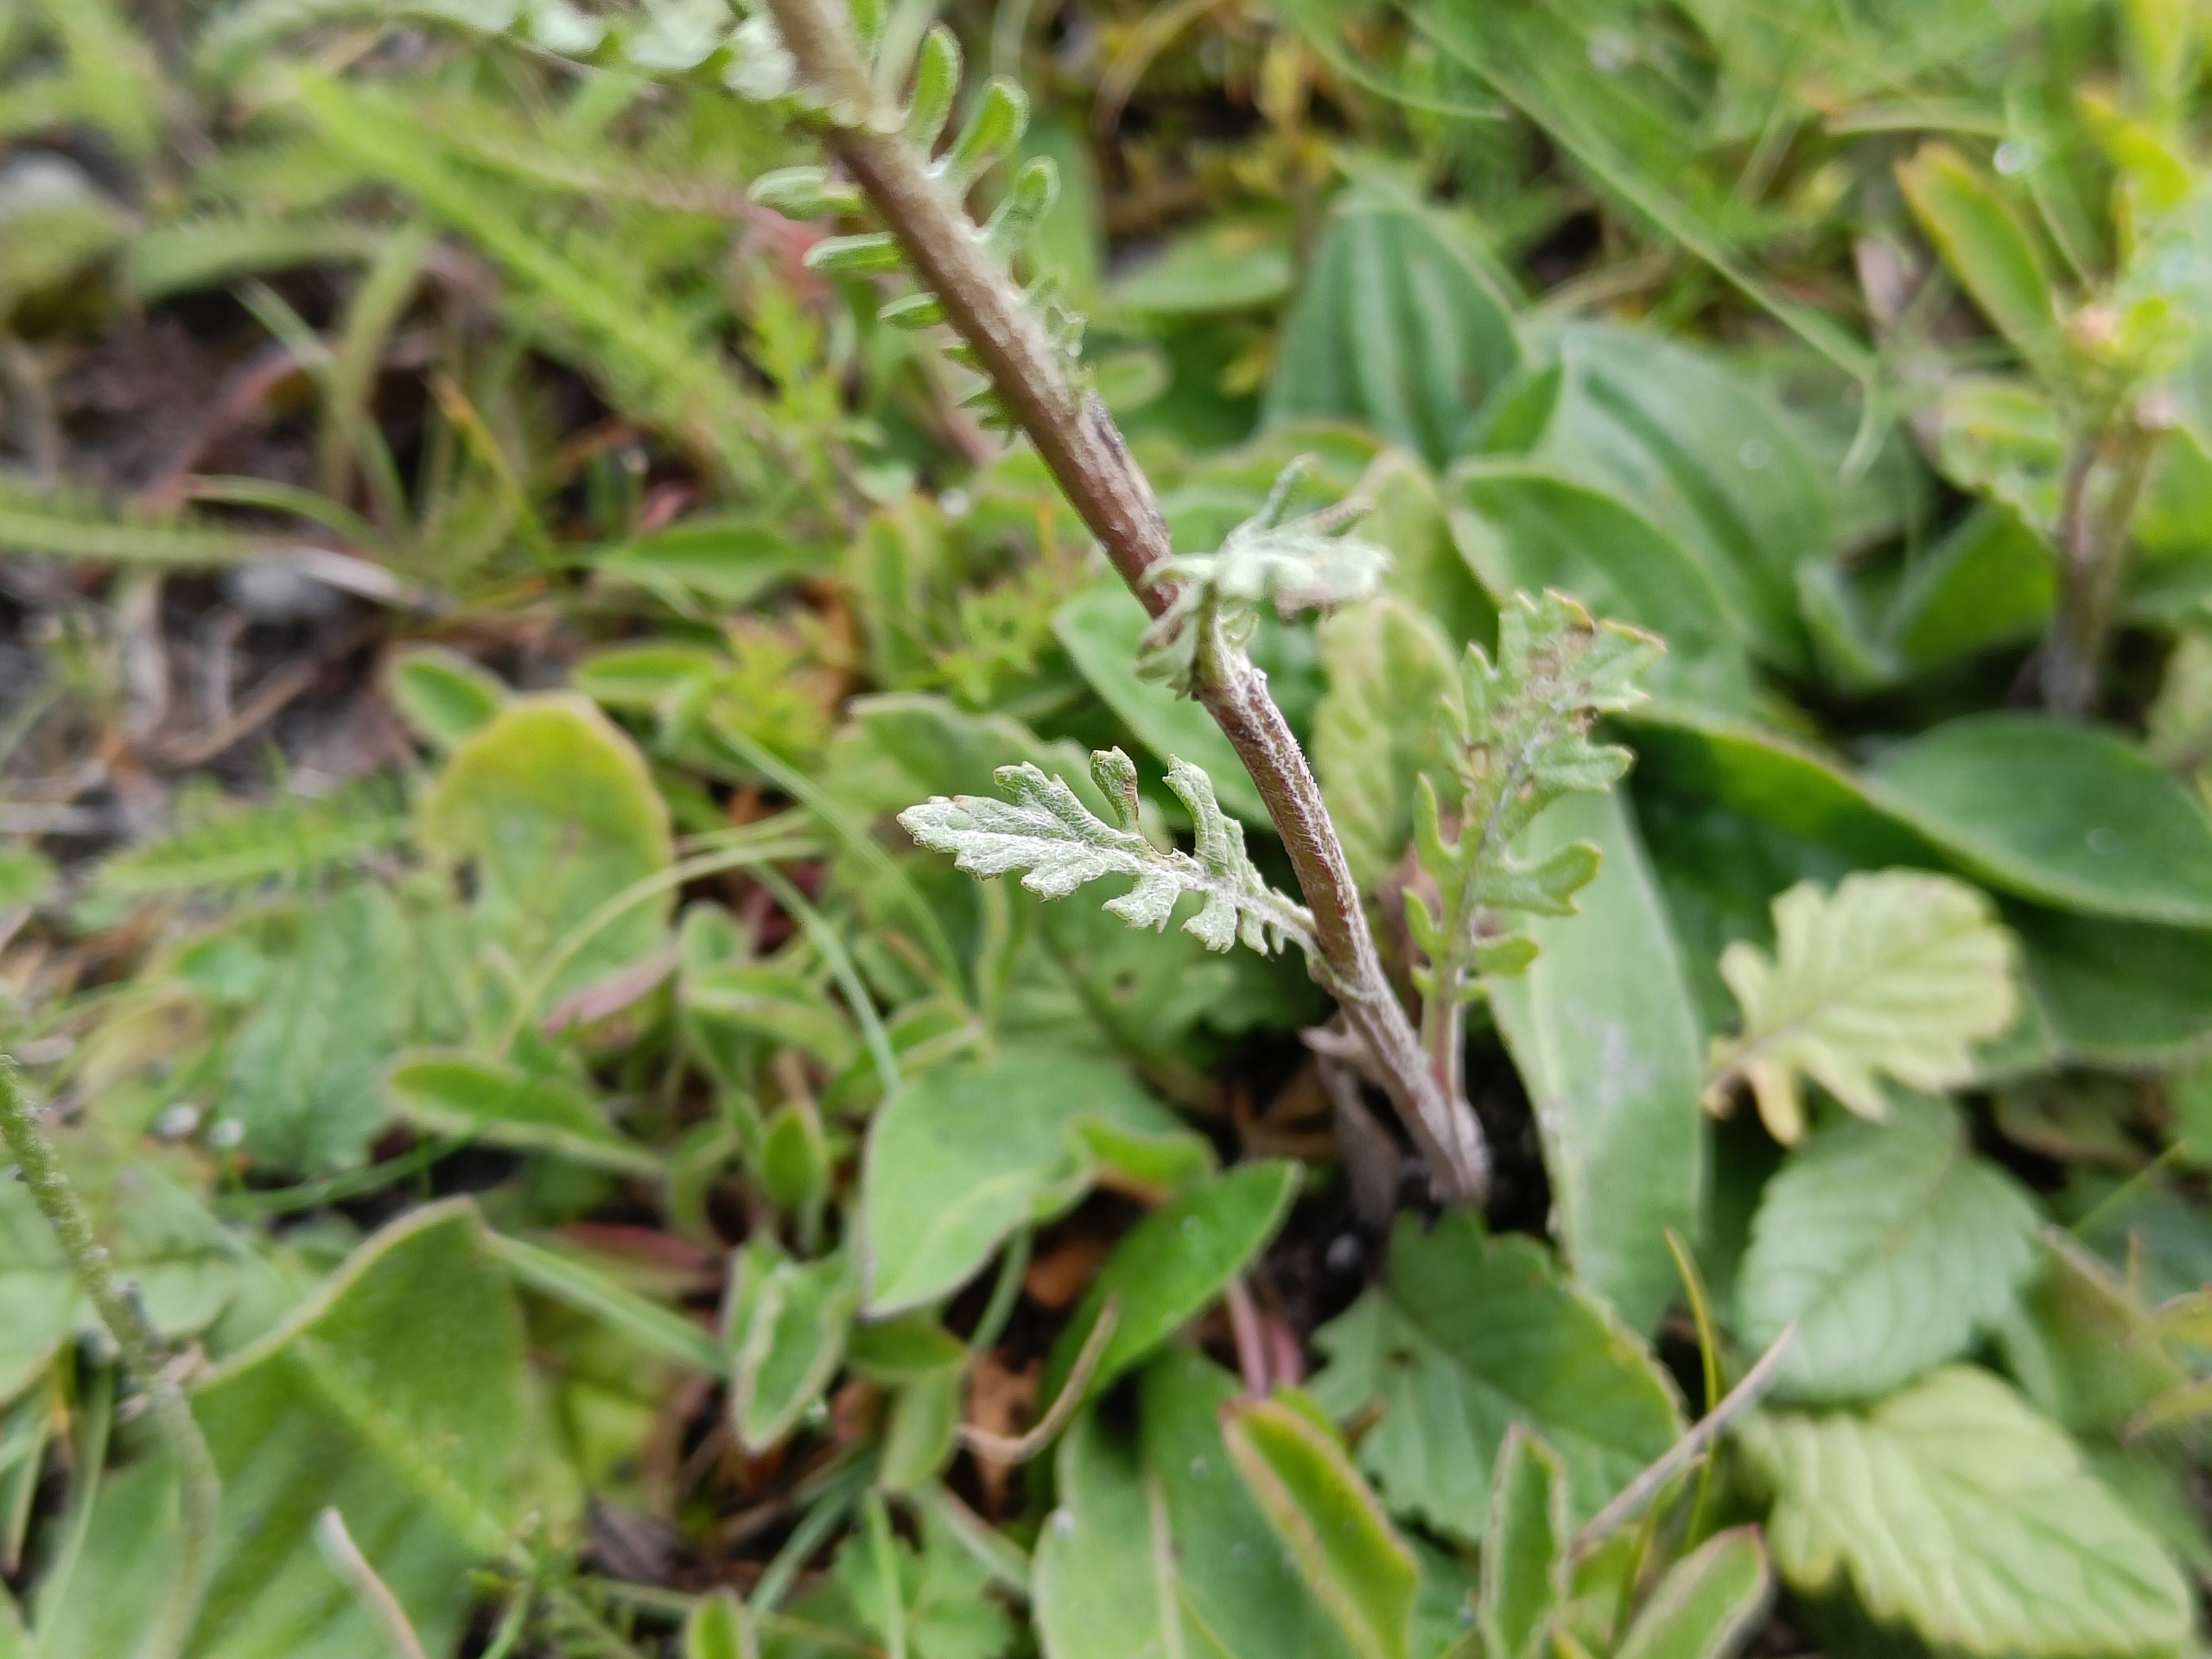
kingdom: Plantae
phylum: Tracheophyta
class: Magnoliopsida
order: Asterales
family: Asteraceae
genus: Jacobaea
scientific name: Jacobaea aquatica
